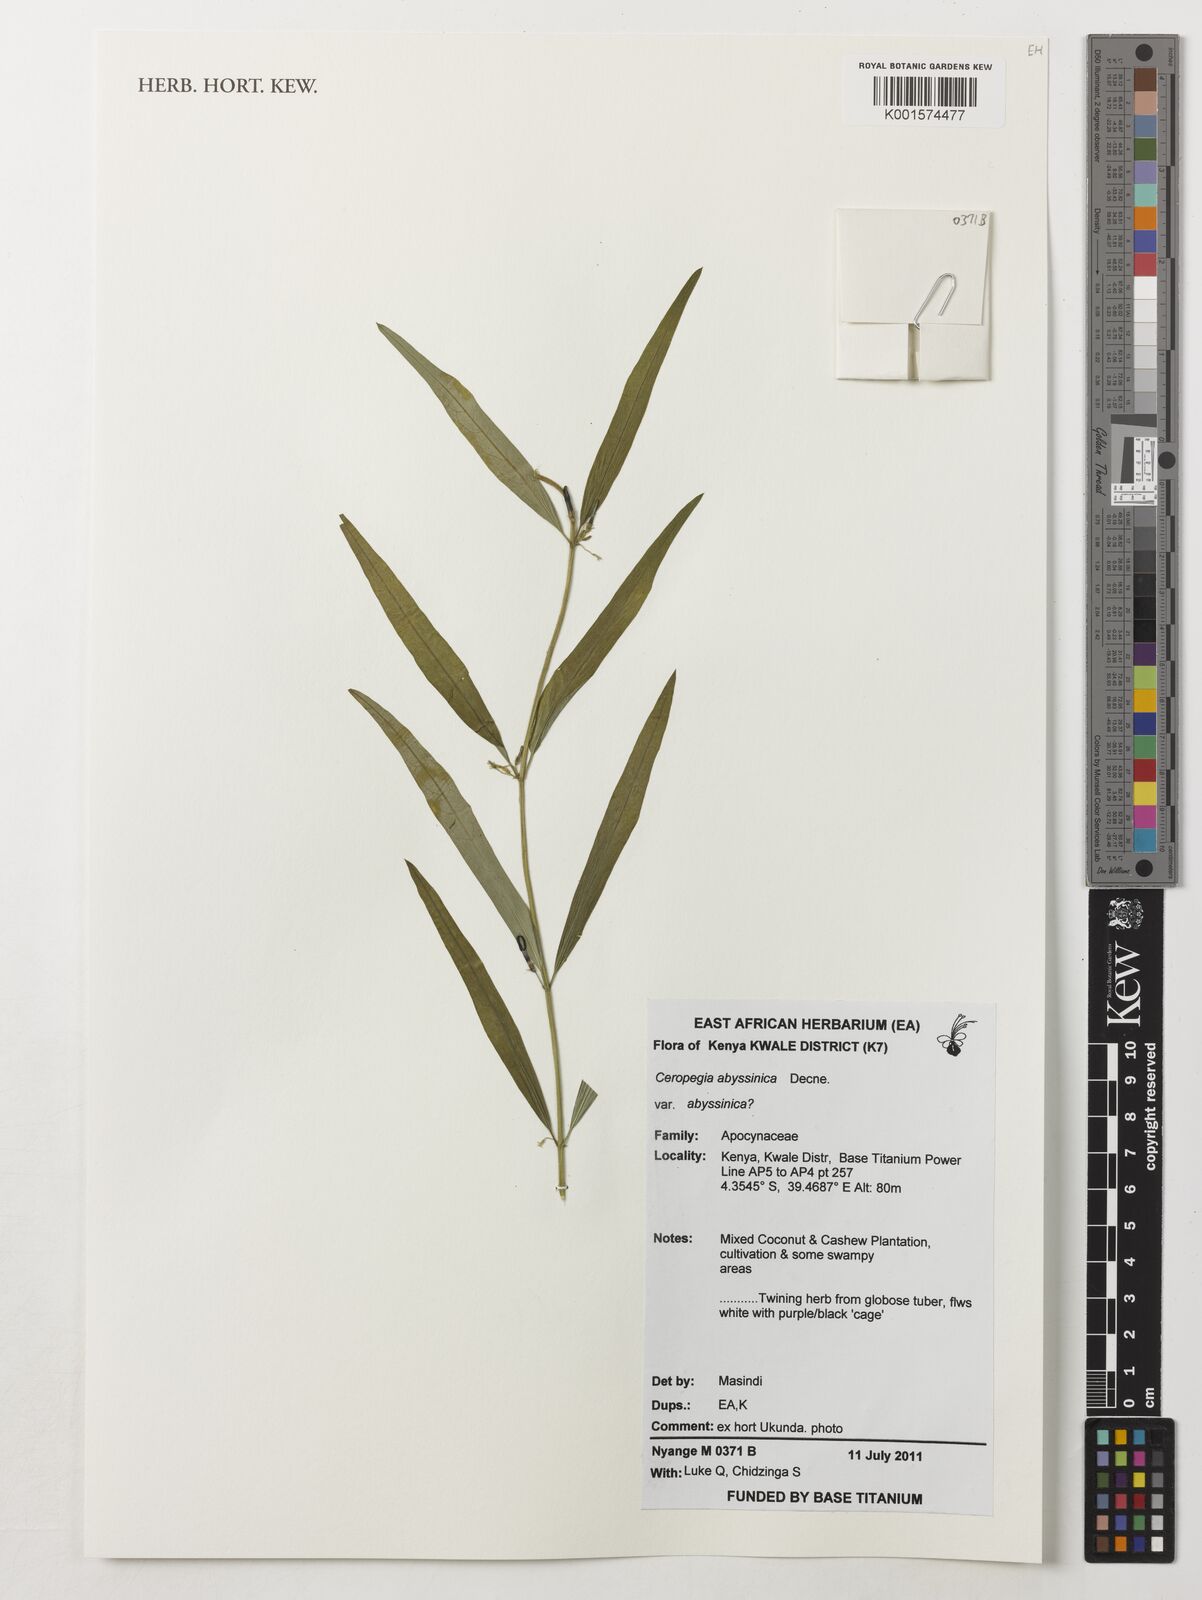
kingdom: Plantae
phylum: Tracheophyta
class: Magnoliopsida
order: Gentianales
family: Apocynaceae
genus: Ceropegia
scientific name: Ceropegia abyssinica
